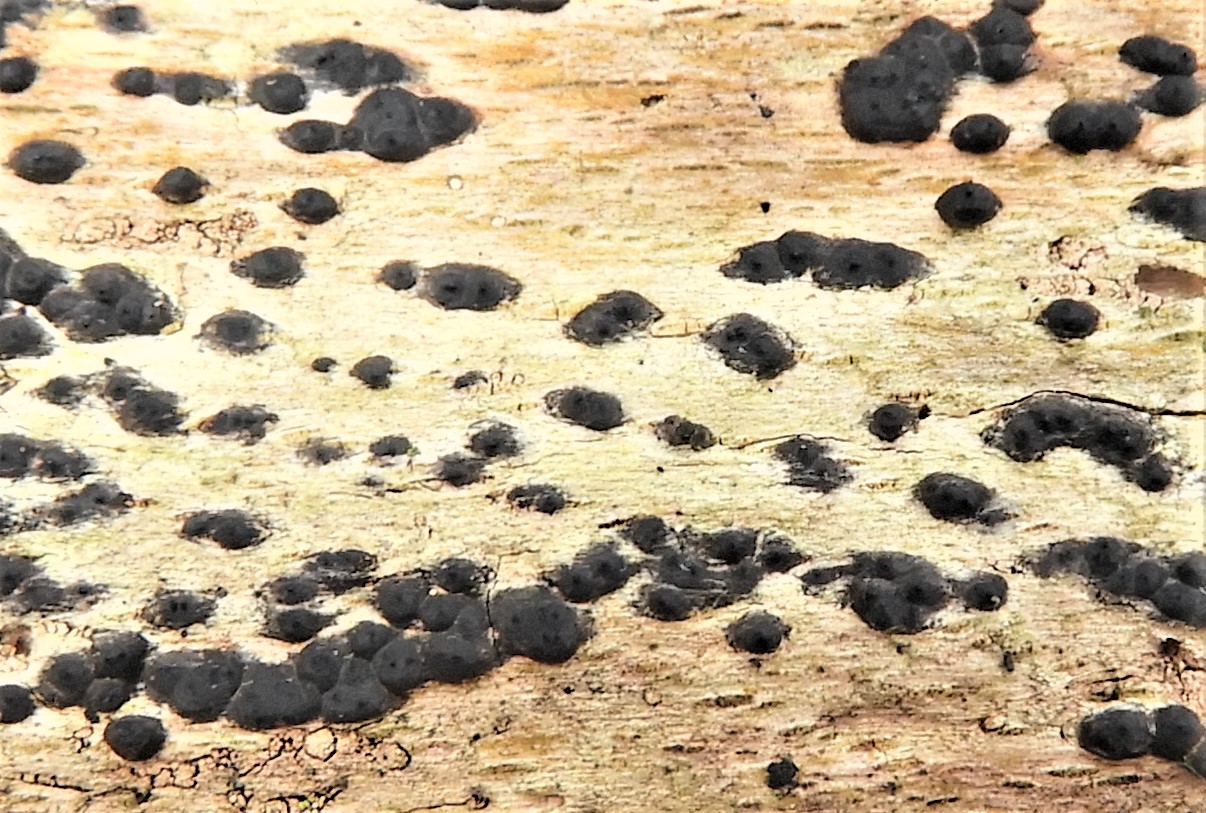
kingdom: Fungi
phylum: Ascomycota
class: Sordariomycetes
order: Xylariales
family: Xylariaceae
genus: Nemania
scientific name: Nemania
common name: kuldyne
